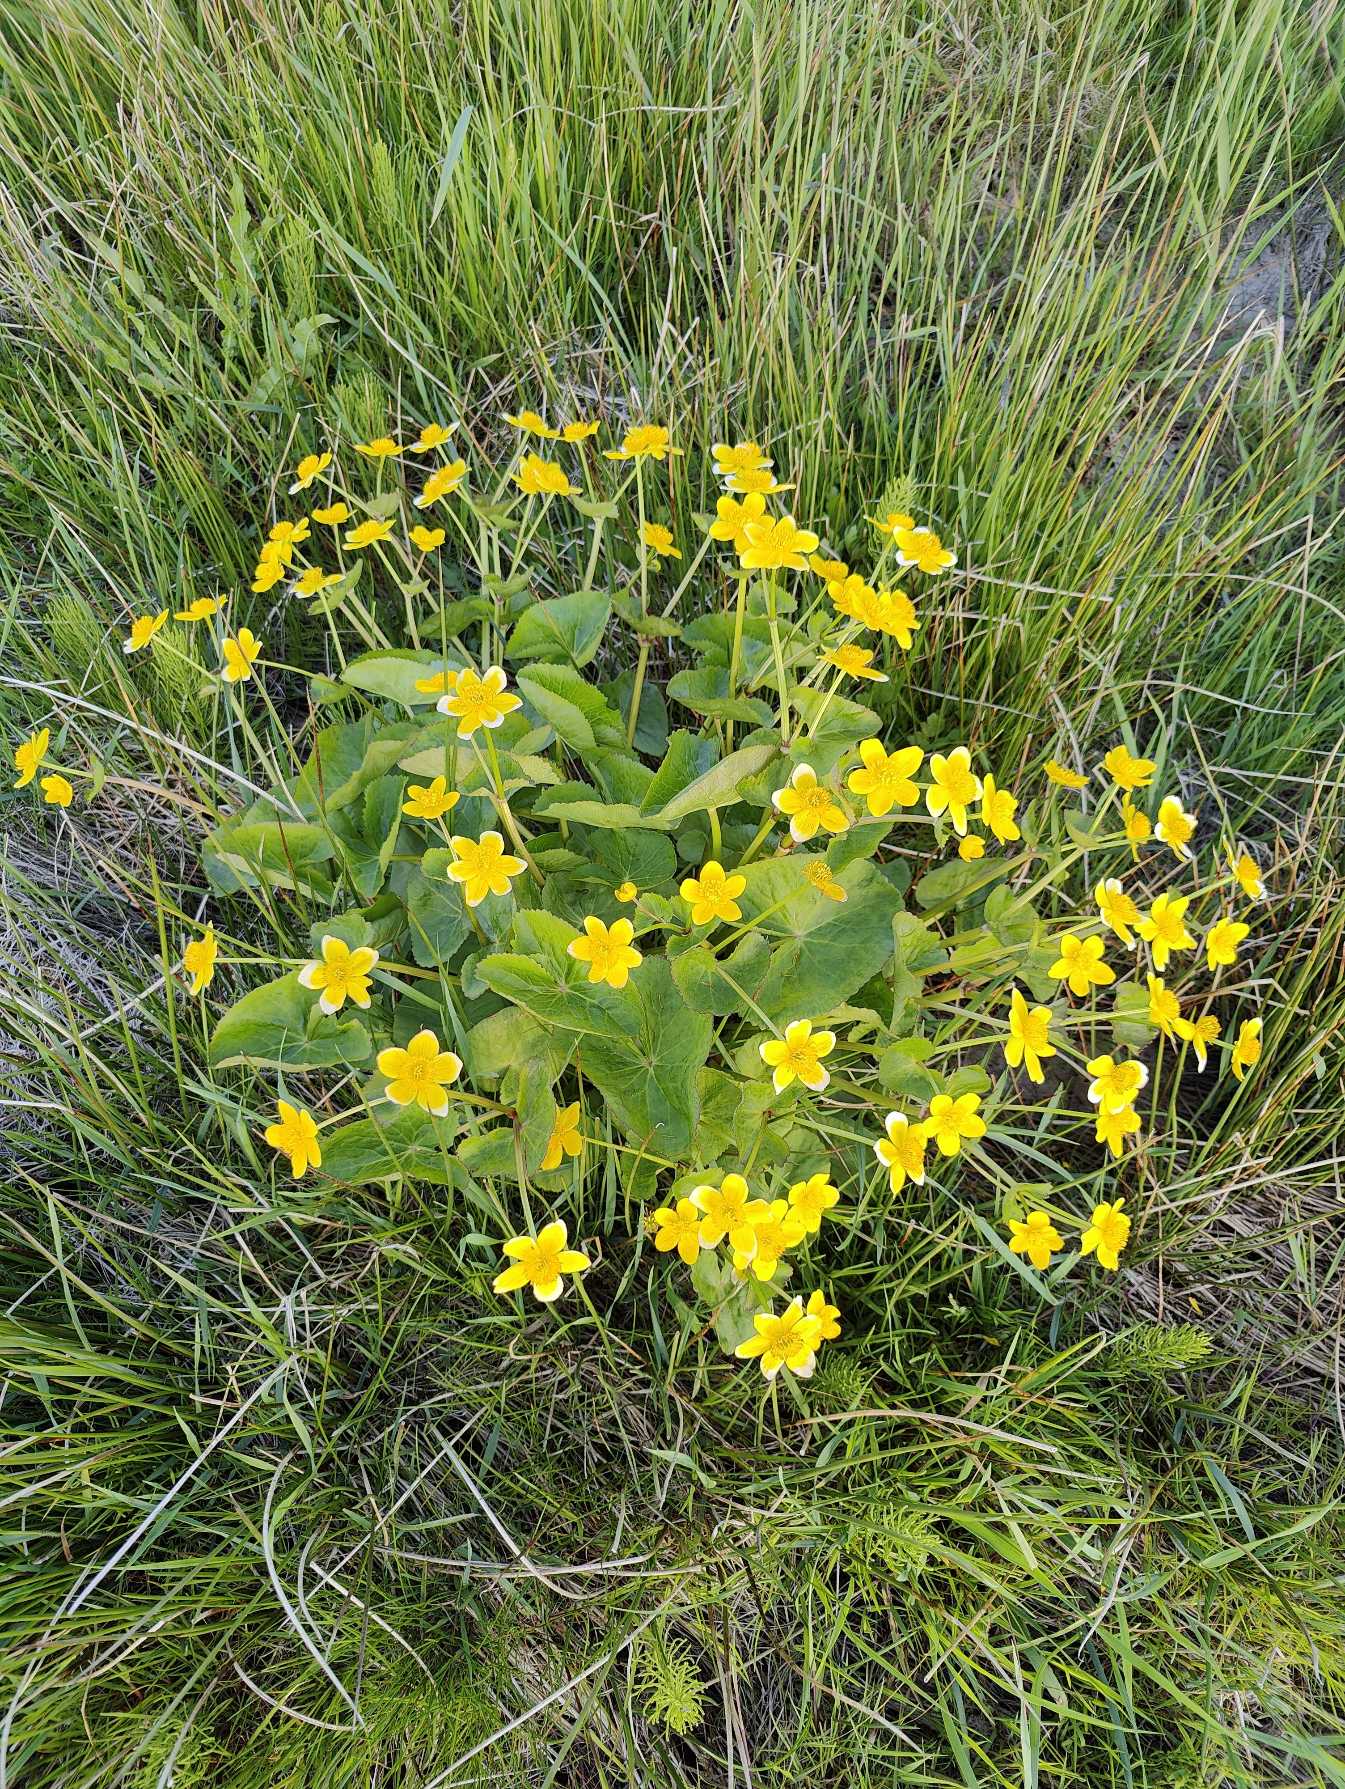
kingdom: Plantae
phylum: Tracheophyta
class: Magnoliopsida
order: Ranunculales
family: Ranunculaceae
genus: Caltha
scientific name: Caltha palustris
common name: Eng-kabbeleje
